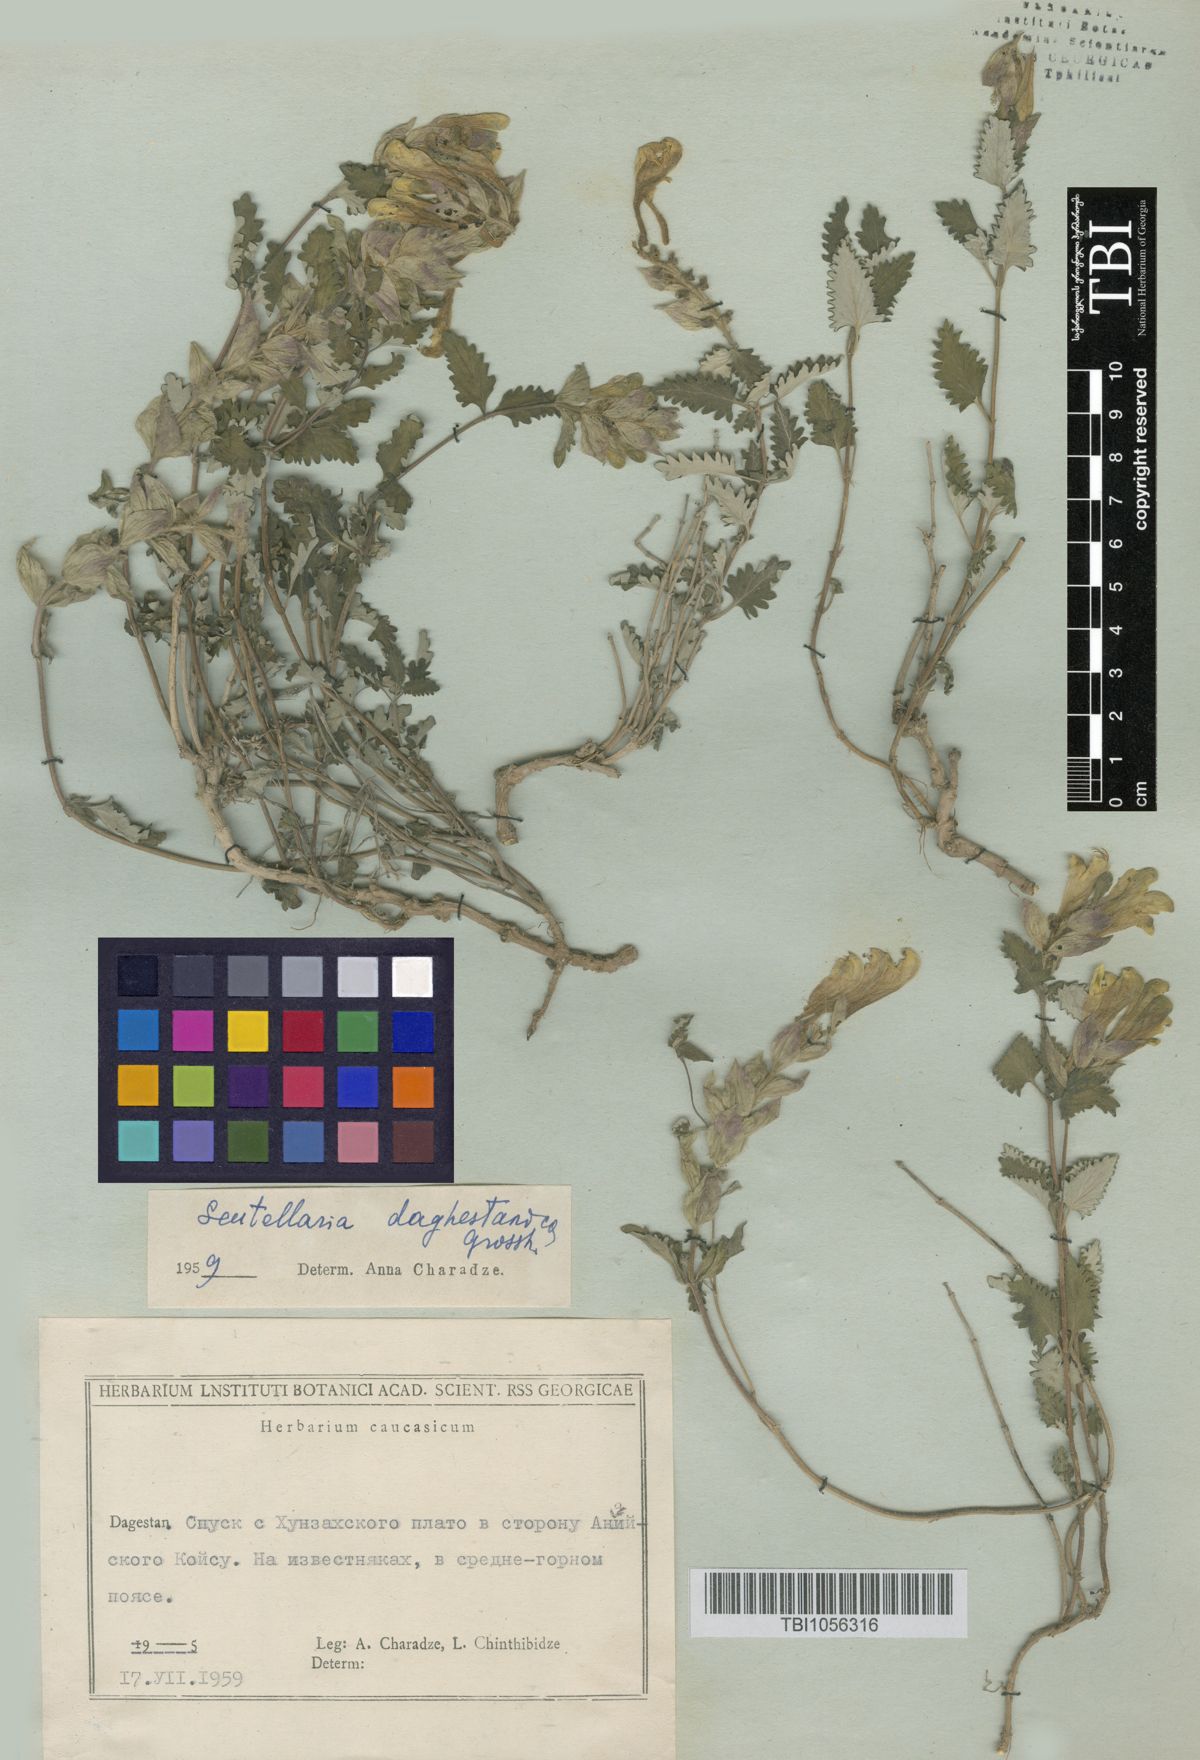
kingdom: Plantae
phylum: Tracheophyta
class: Magnoliopsida
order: Lamiales
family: Lamiaceae
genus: Scutellaria
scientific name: Scutellaria daghestanica
